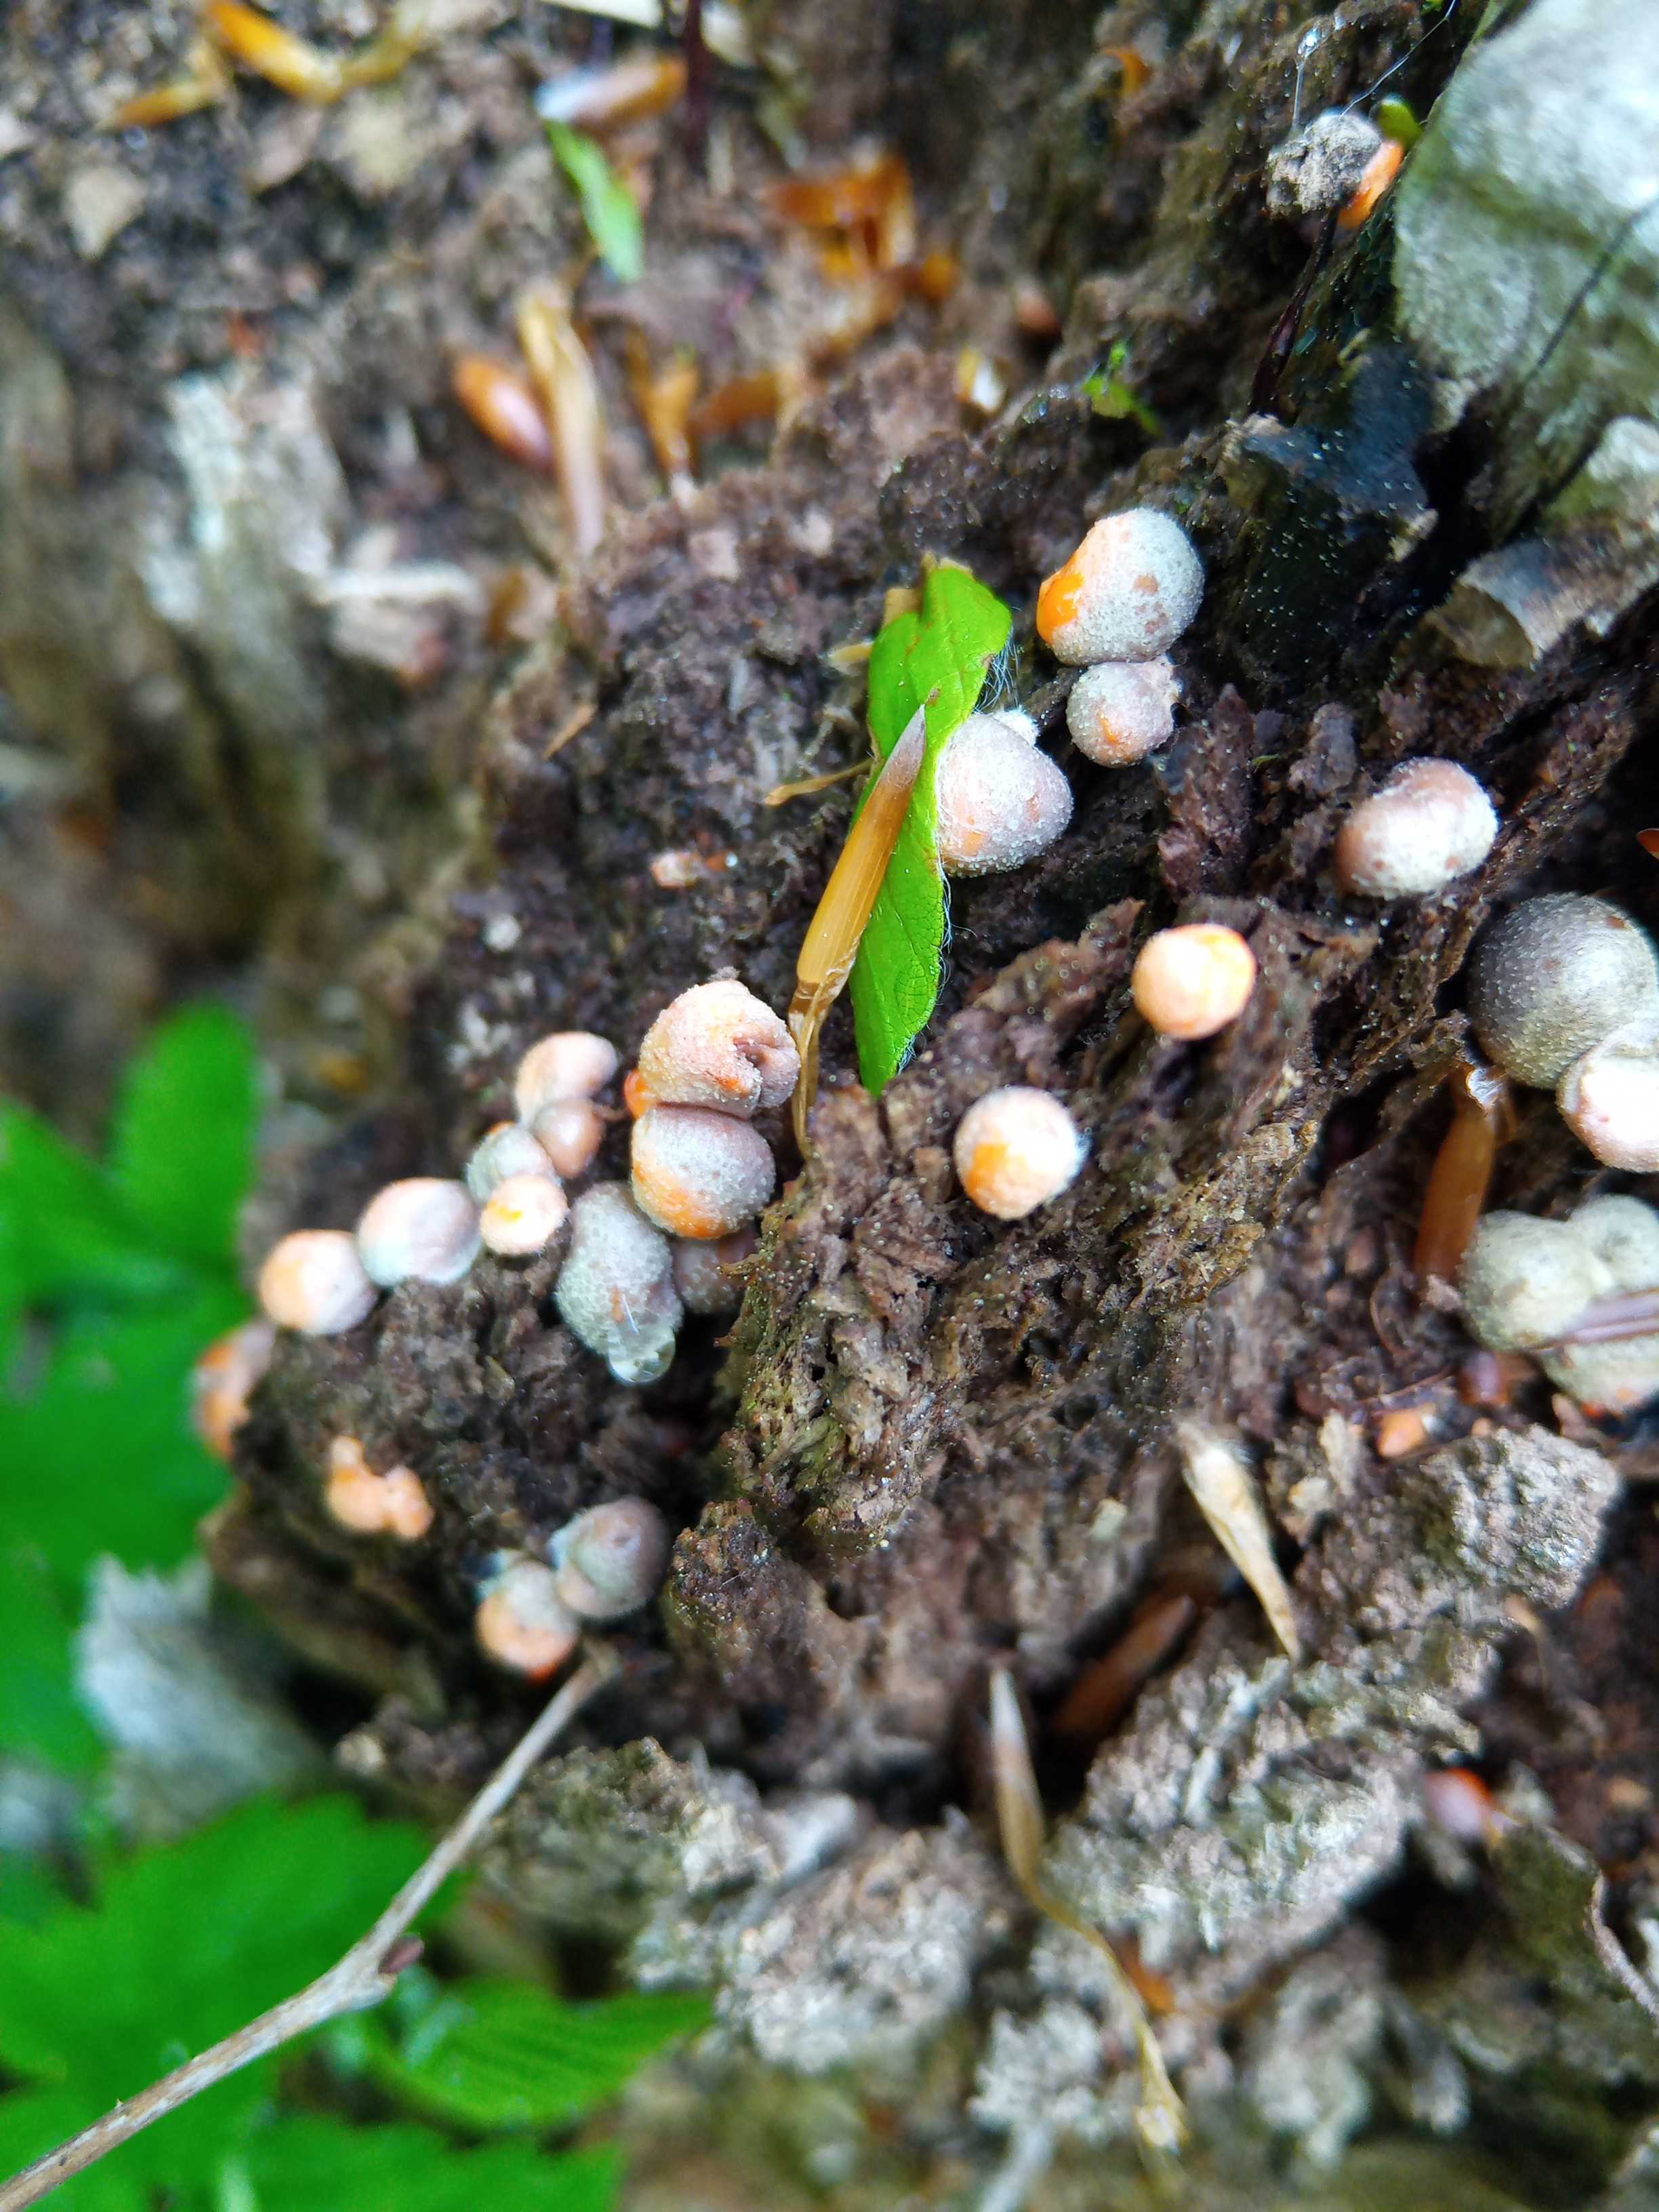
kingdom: Protozoa
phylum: Mycetozoa
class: Myxomycetes
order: Cribrariales
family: Tubiferaceae
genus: Lycogala
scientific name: Lycogala epidendrum
